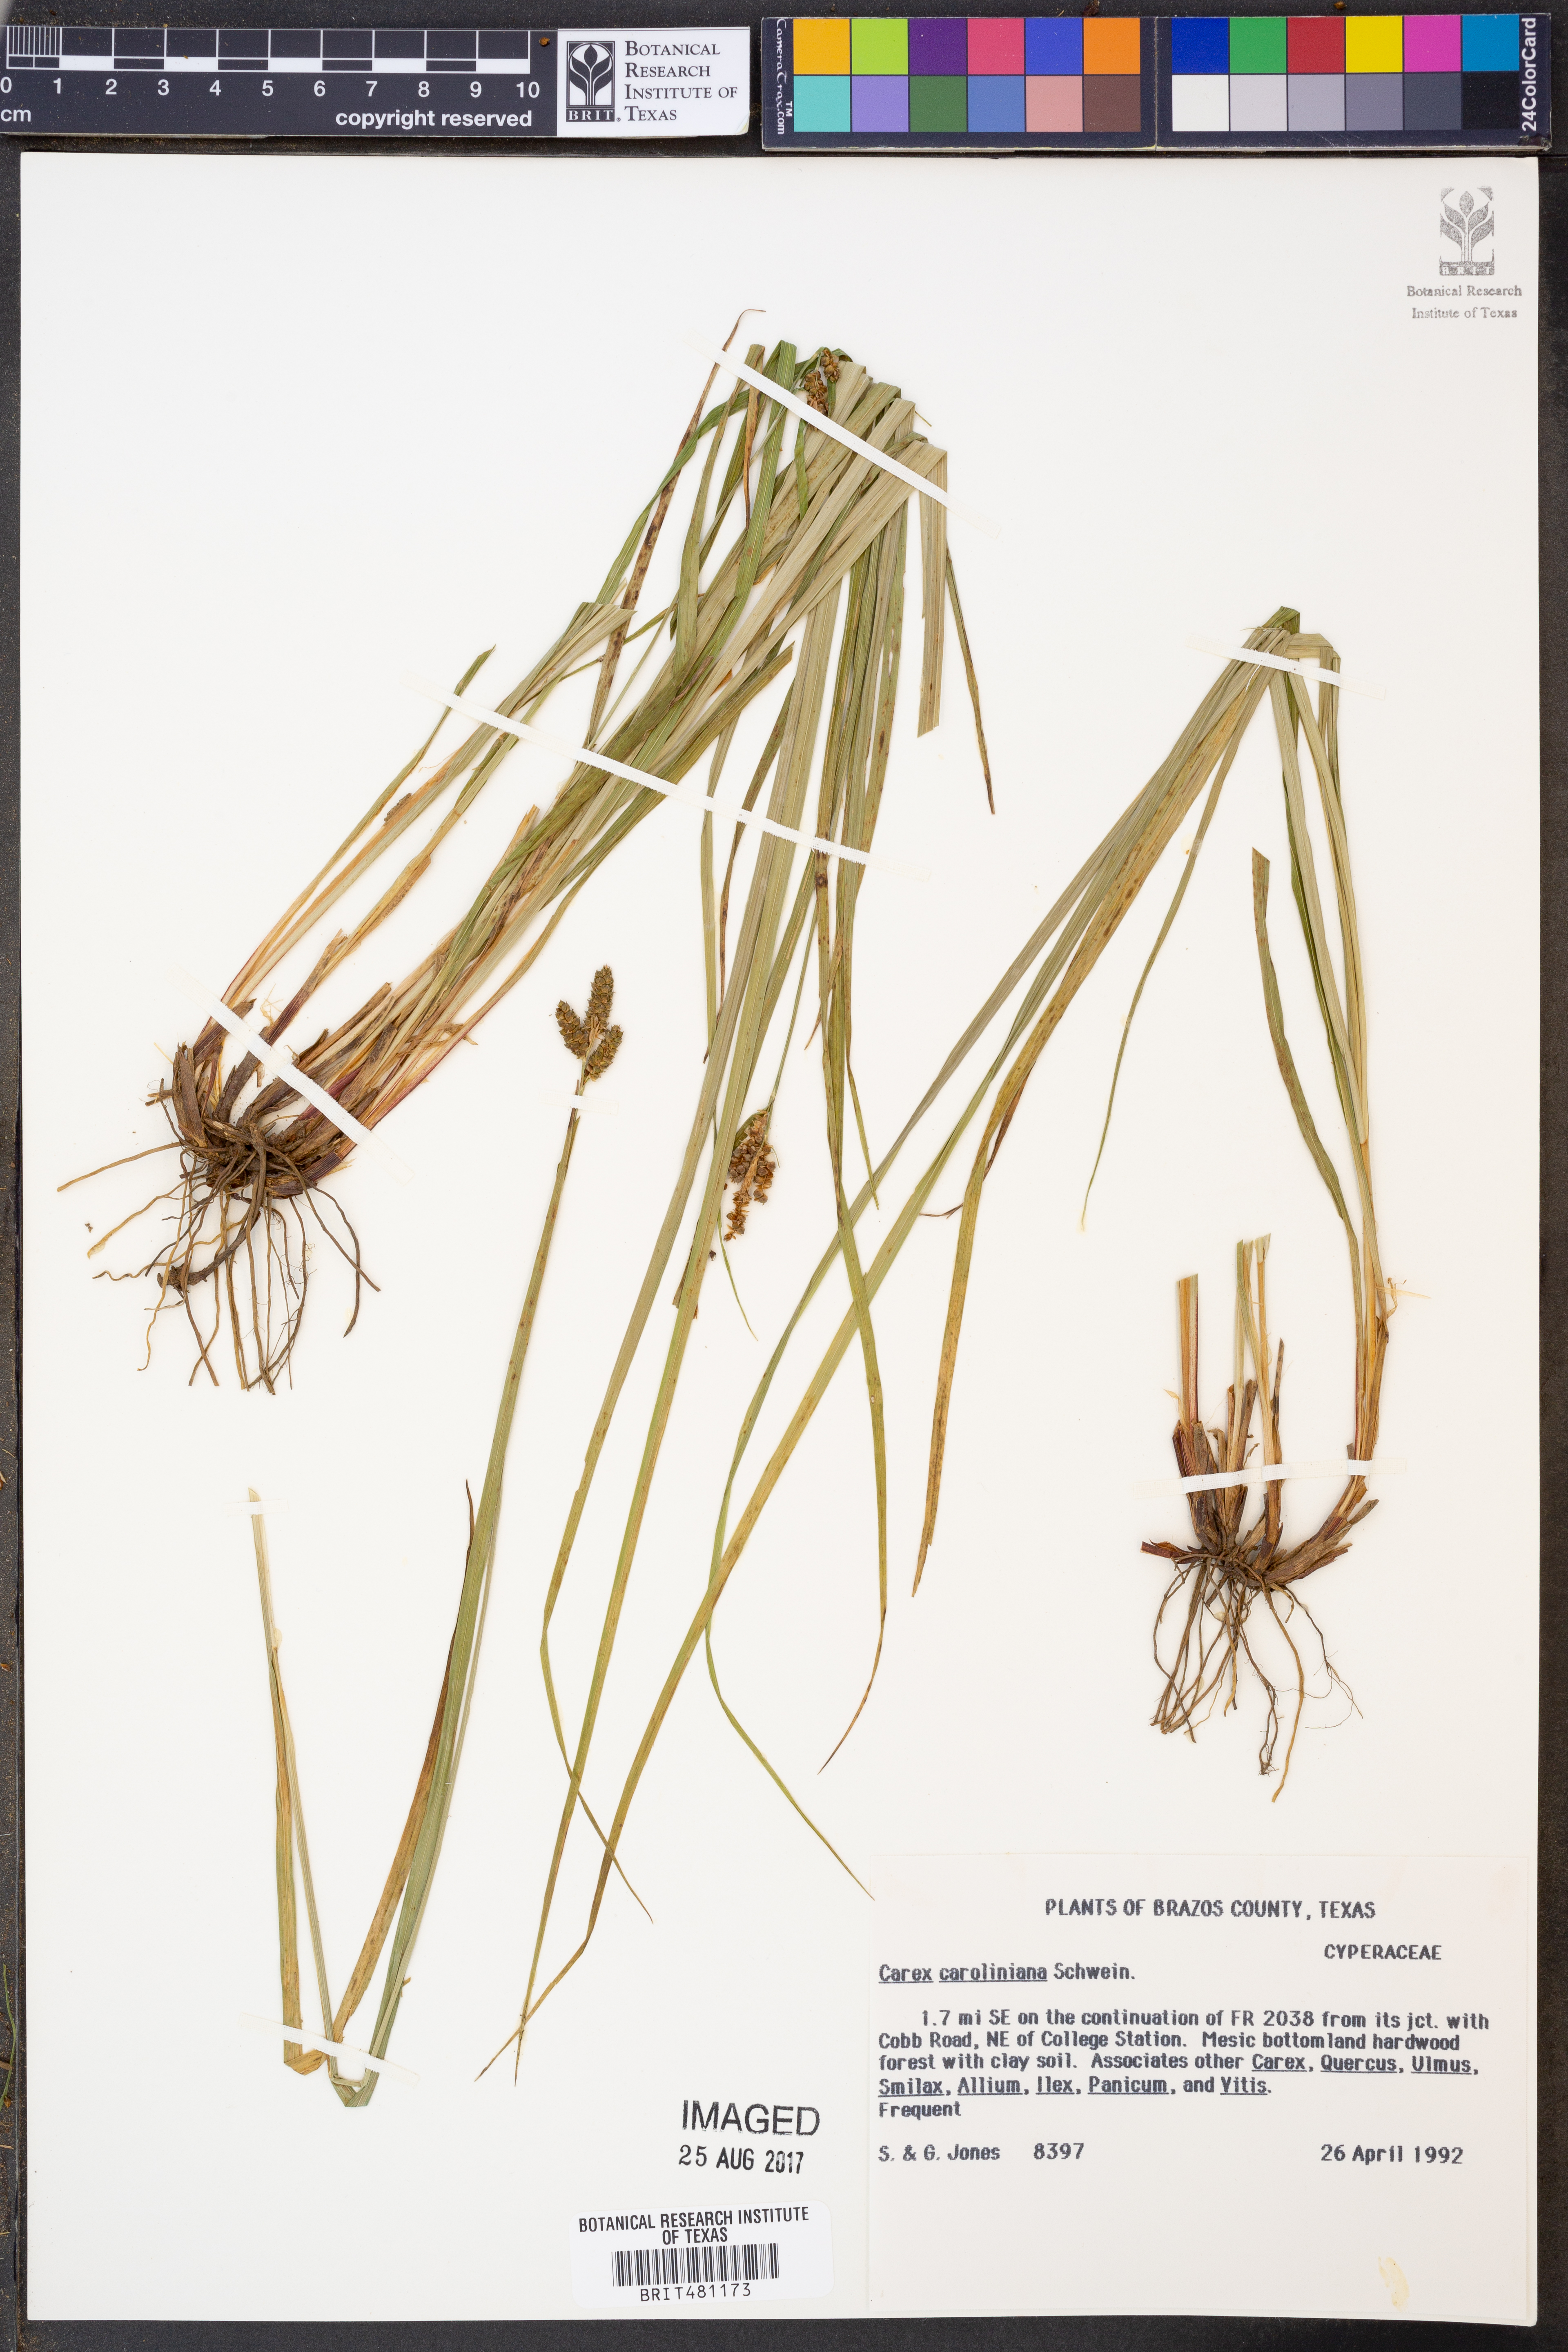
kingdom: Plantae
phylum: Tracheophyta
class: Liliopsida
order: Poales
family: Cyperaceae
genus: Carex
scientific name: Carex caroliniana
